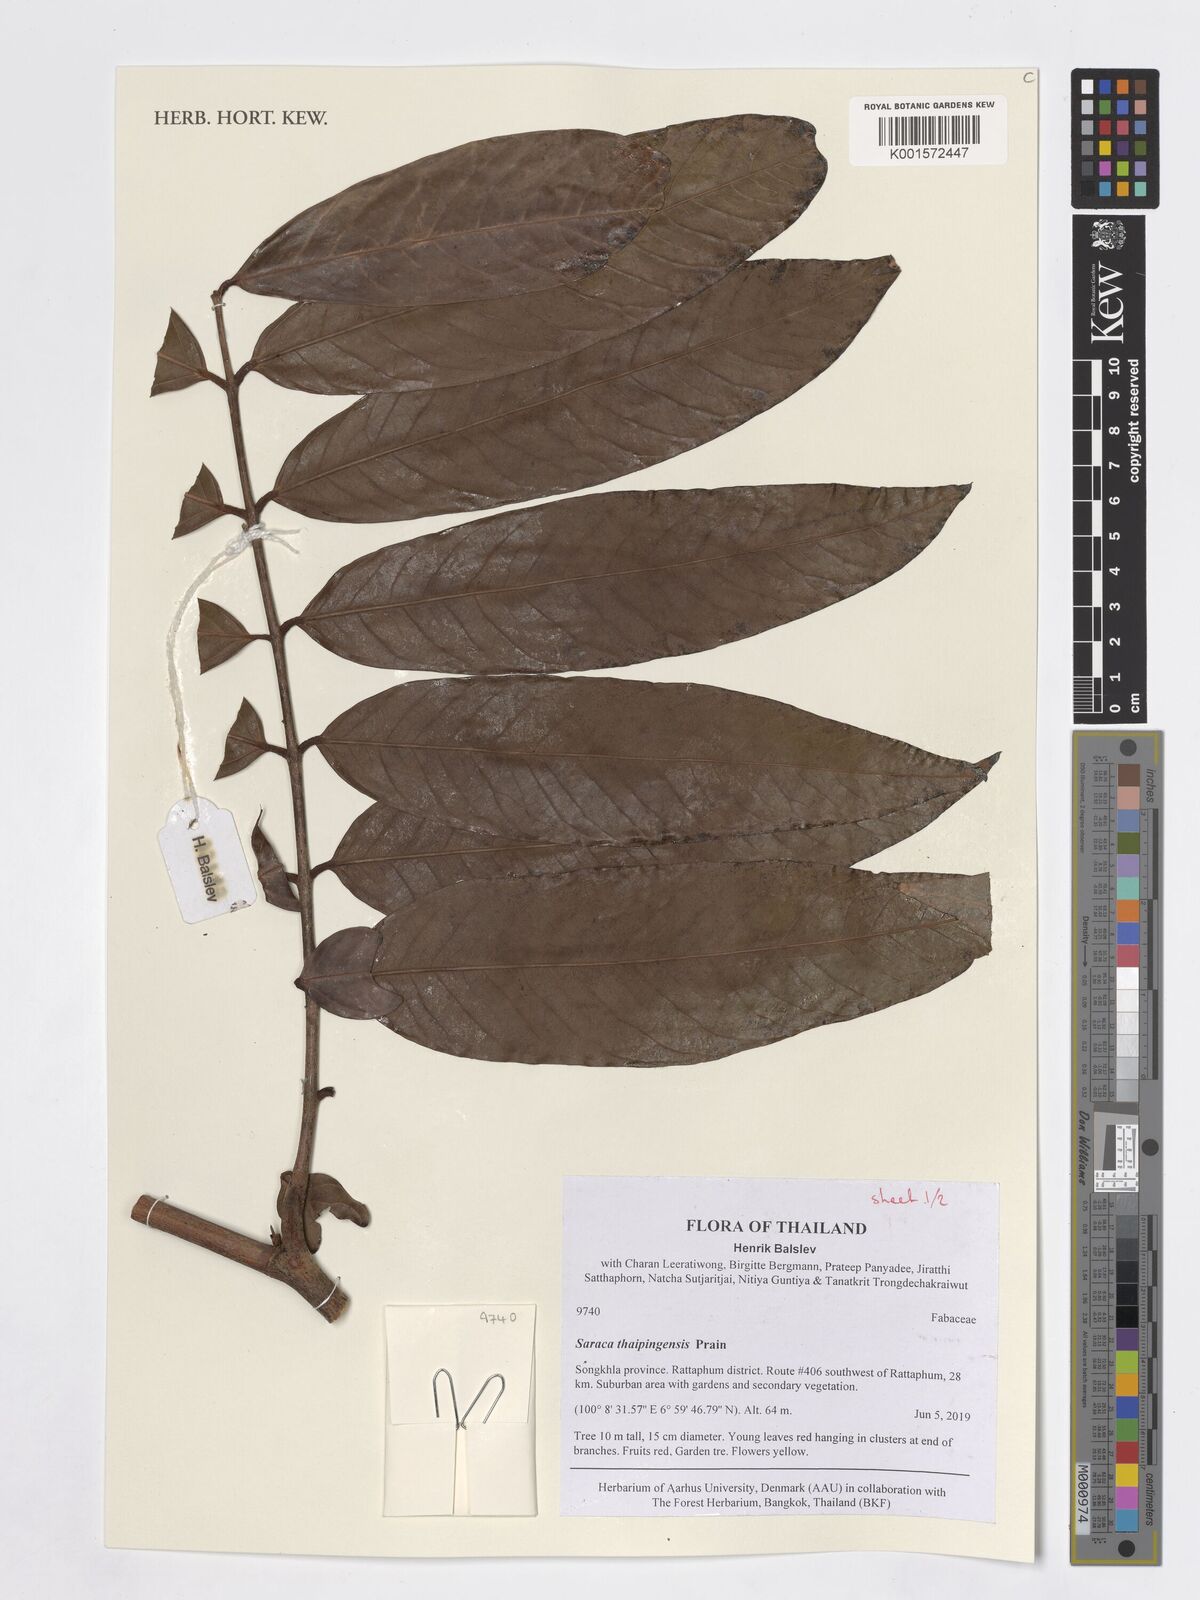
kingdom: Plantae
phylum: Tracheophyta
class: Magnoliopsida
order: Fabales
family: Fabaceae
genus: Saraca
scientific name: Saraca thaipingensis
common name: Yellow saraca
